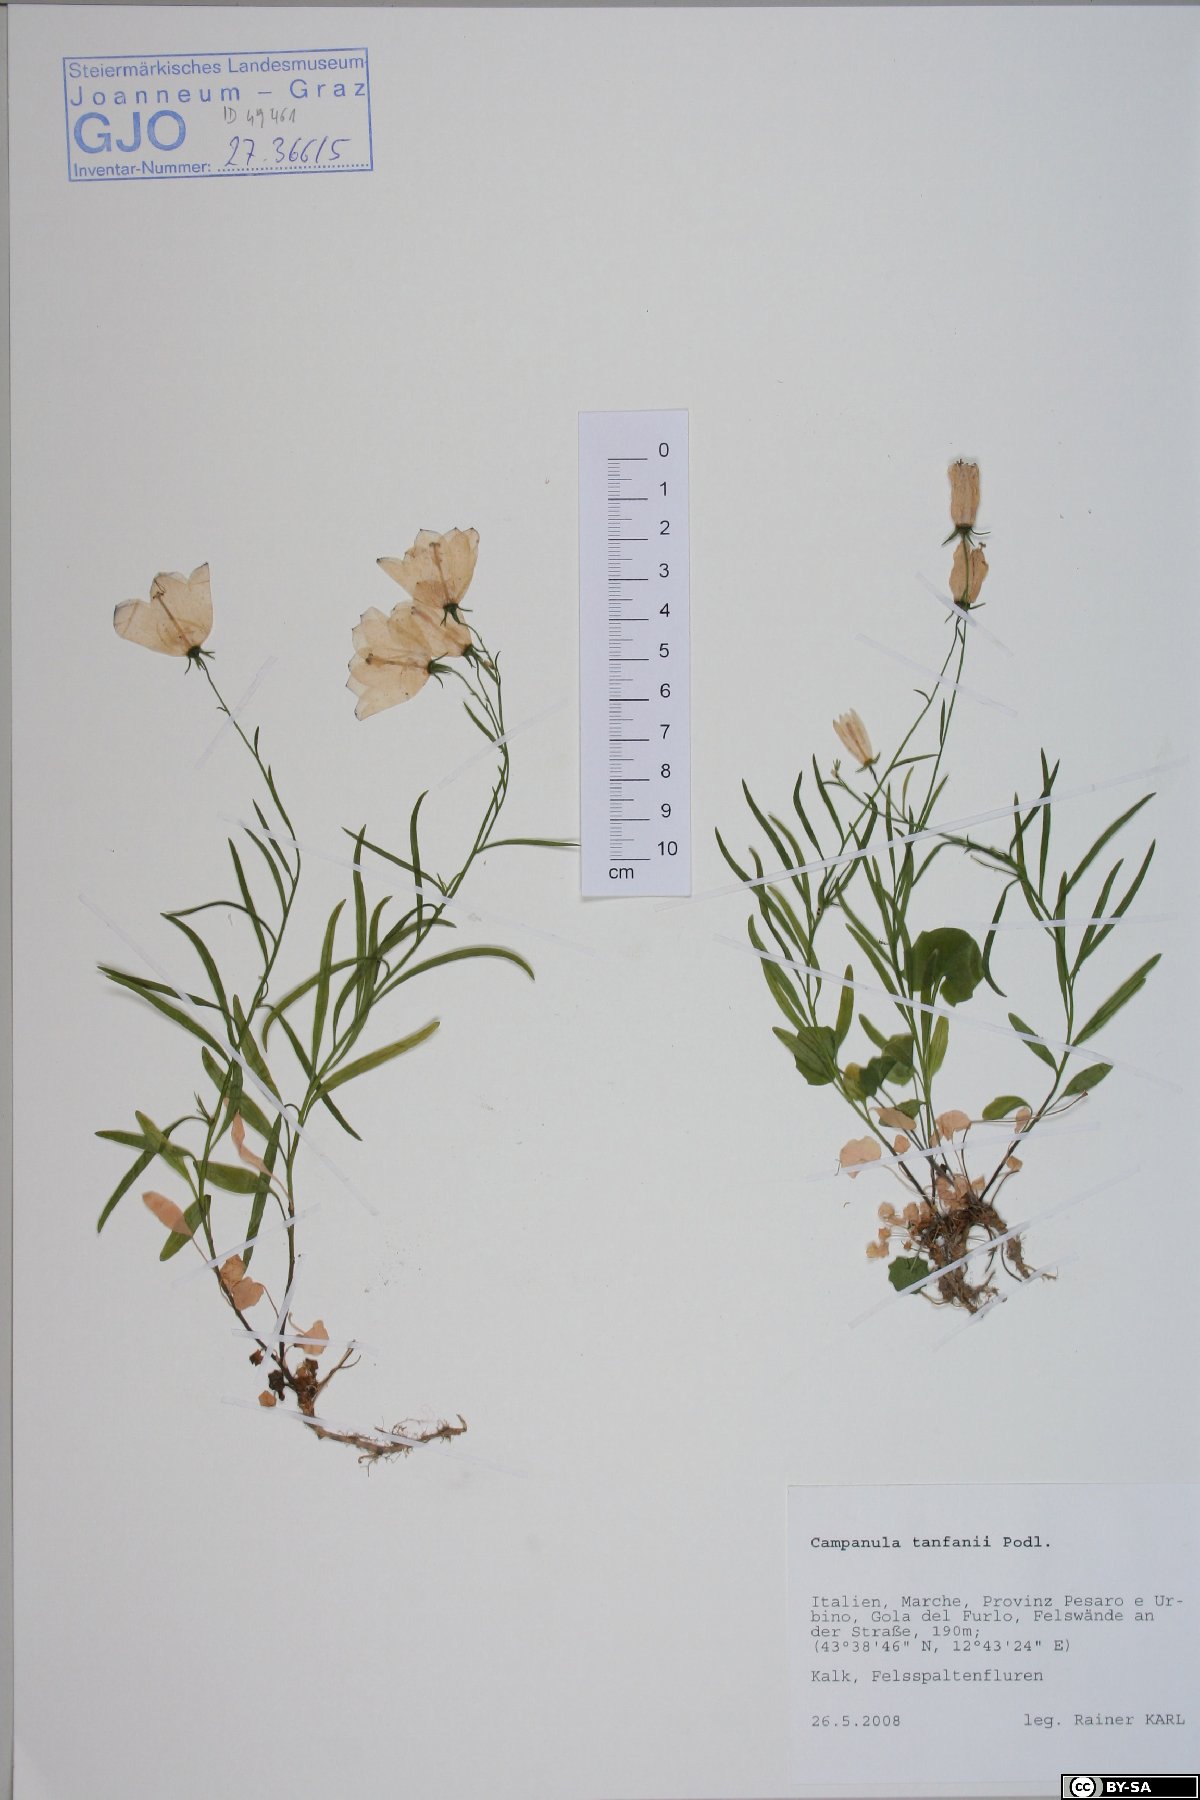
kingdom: Plantae
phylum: Tracheophyta
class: Magnoliopsida
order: Asterales
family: Campanulaceae
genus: Campanula
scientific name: Campanula tanfanii
